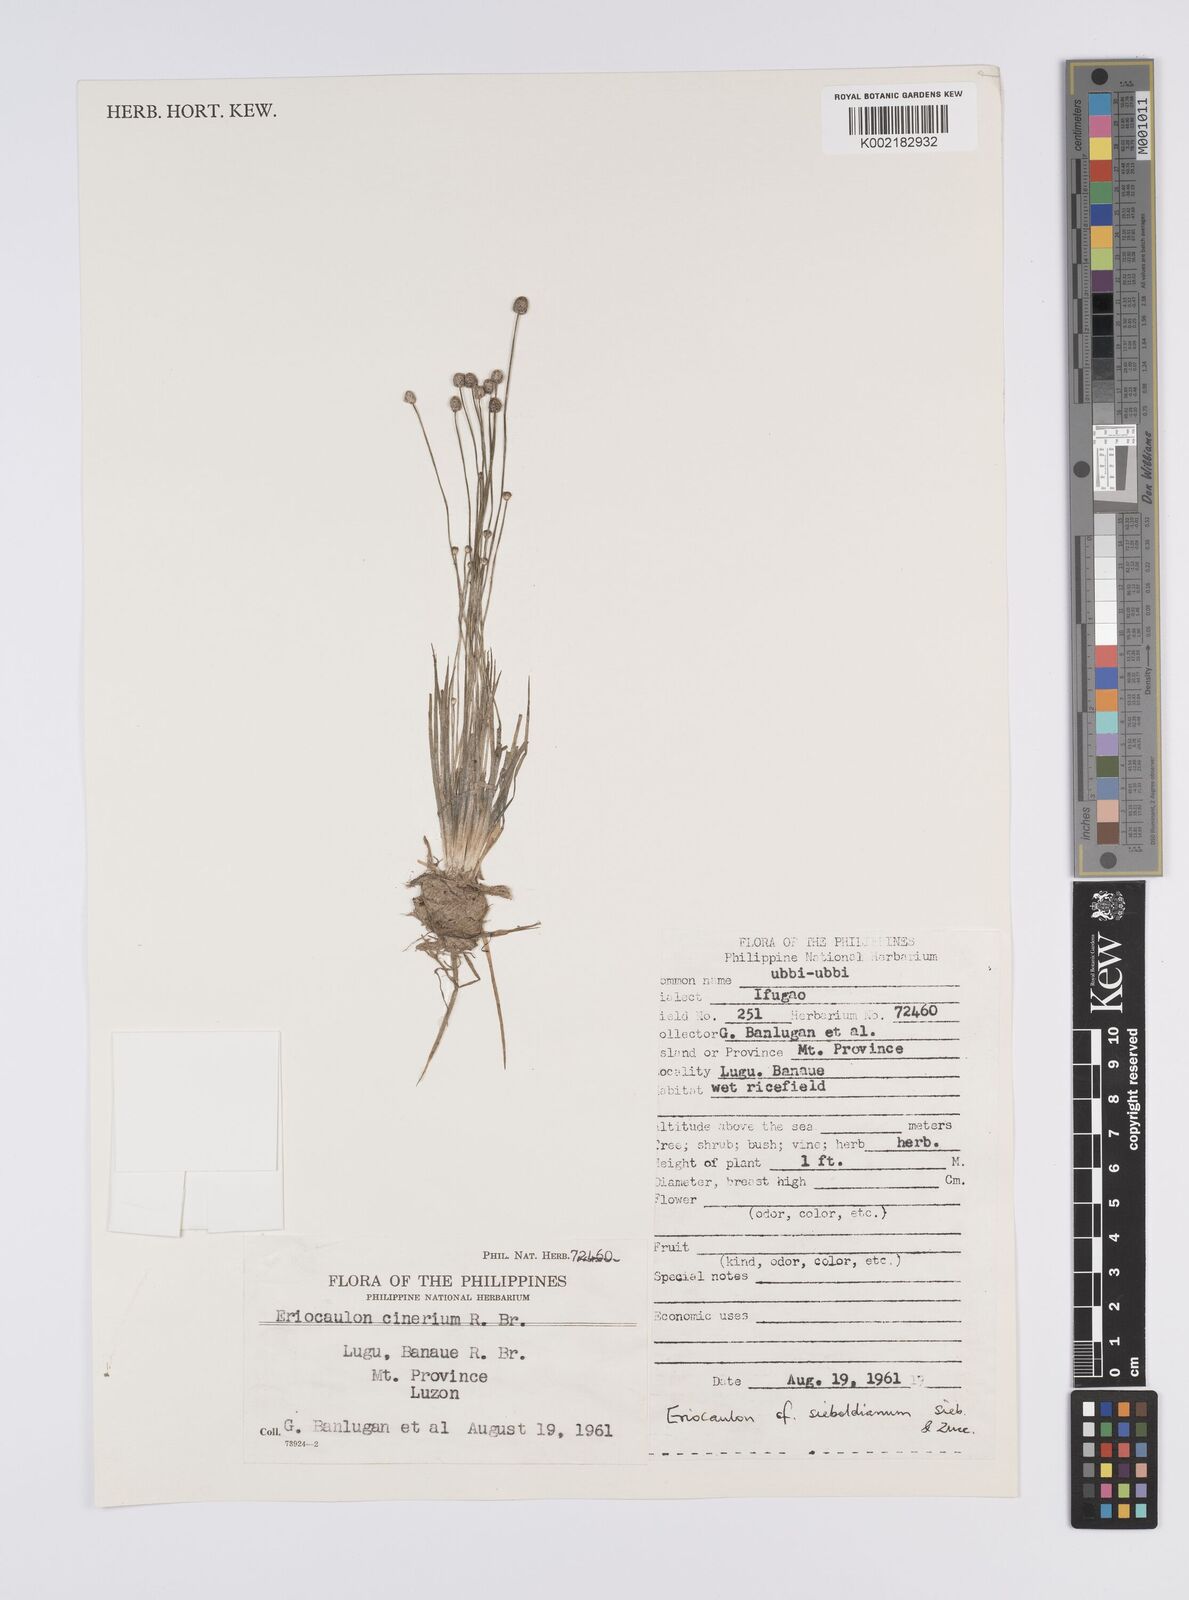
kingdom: Plantae
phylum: Tracheophyta
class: Liliopsida
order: Poales
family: Eriocaulaceae
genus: Eriocaulon
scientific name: Eriocaulon cinereum
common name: Ashy pipewort
